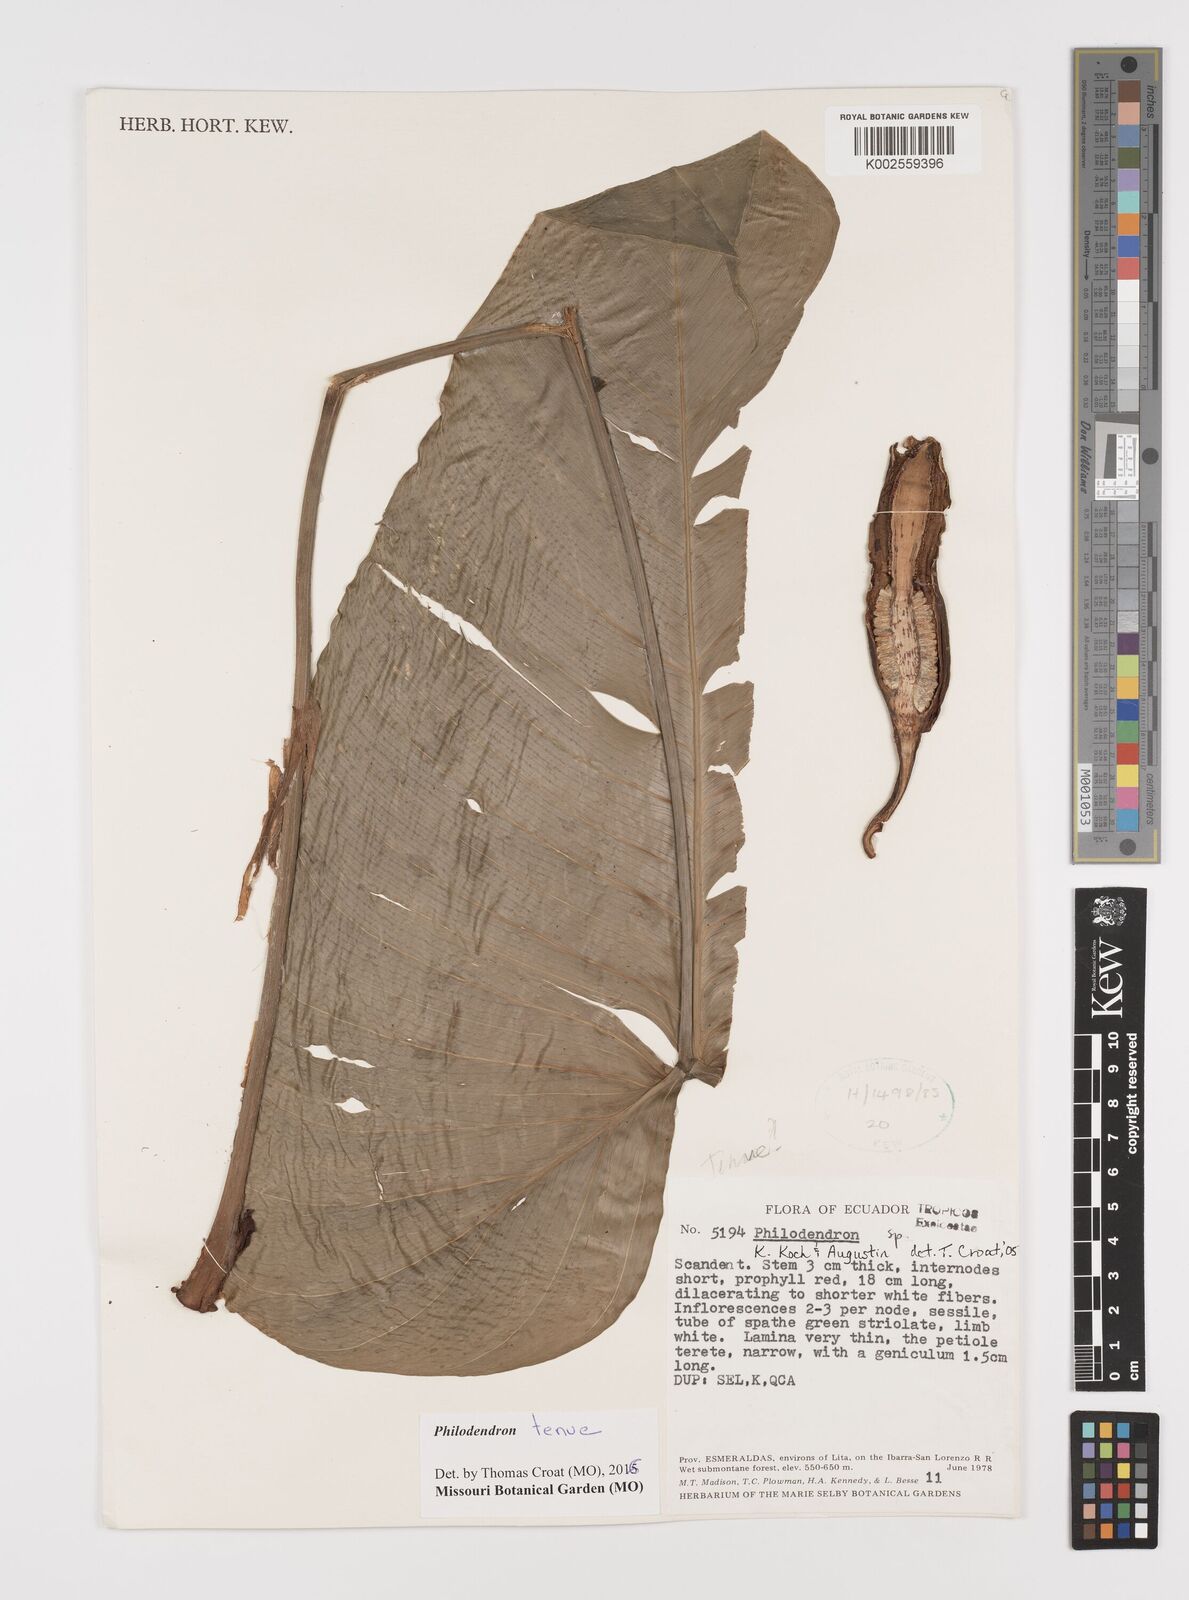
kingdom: Plantae
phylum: Tracheophyta
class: Liliopsida
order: Alismatales
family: Araceae
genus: Philodendron
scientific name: Philodendron tenue
